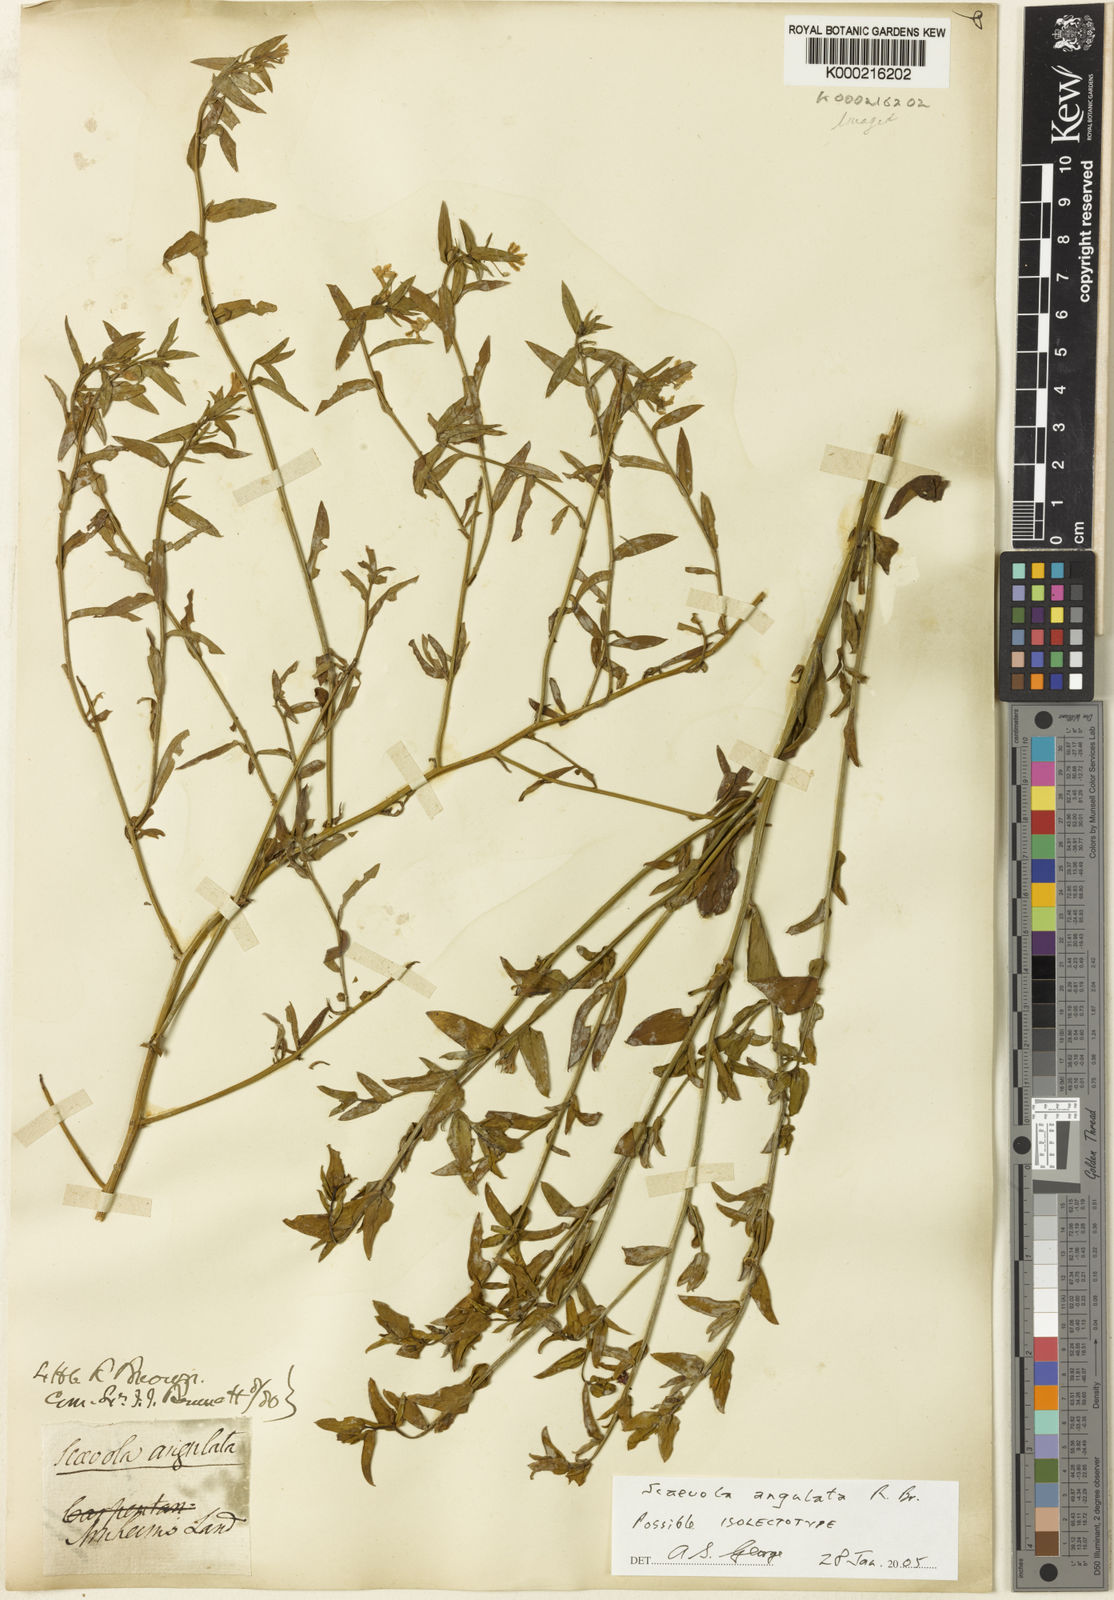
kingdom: Plantae
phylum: Tracheophyta
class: Magnoliopsida
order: Asterales
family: Goodeniaceae
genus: Scaevola
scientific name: Scaevola angulata
